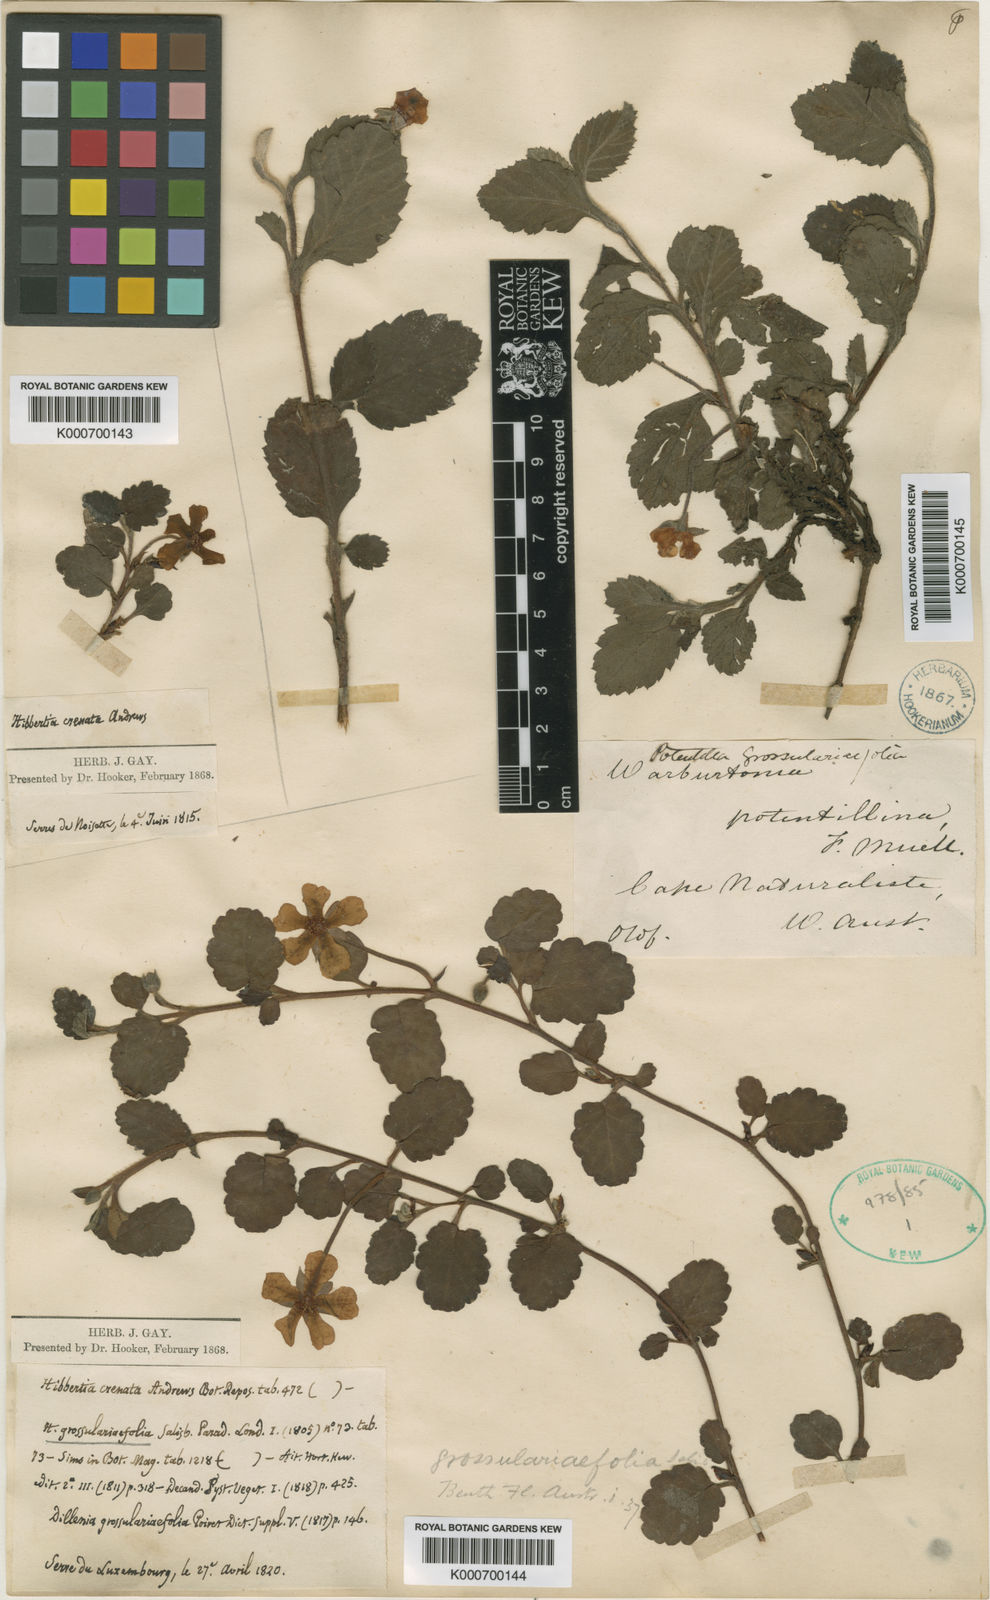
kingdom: Plantae
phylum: Tracheophyta
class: Magnoliopsida
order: Dilleniales
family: Dilleniaceae
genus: Hibbertia
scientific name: Hibbertia grossulariifolia
